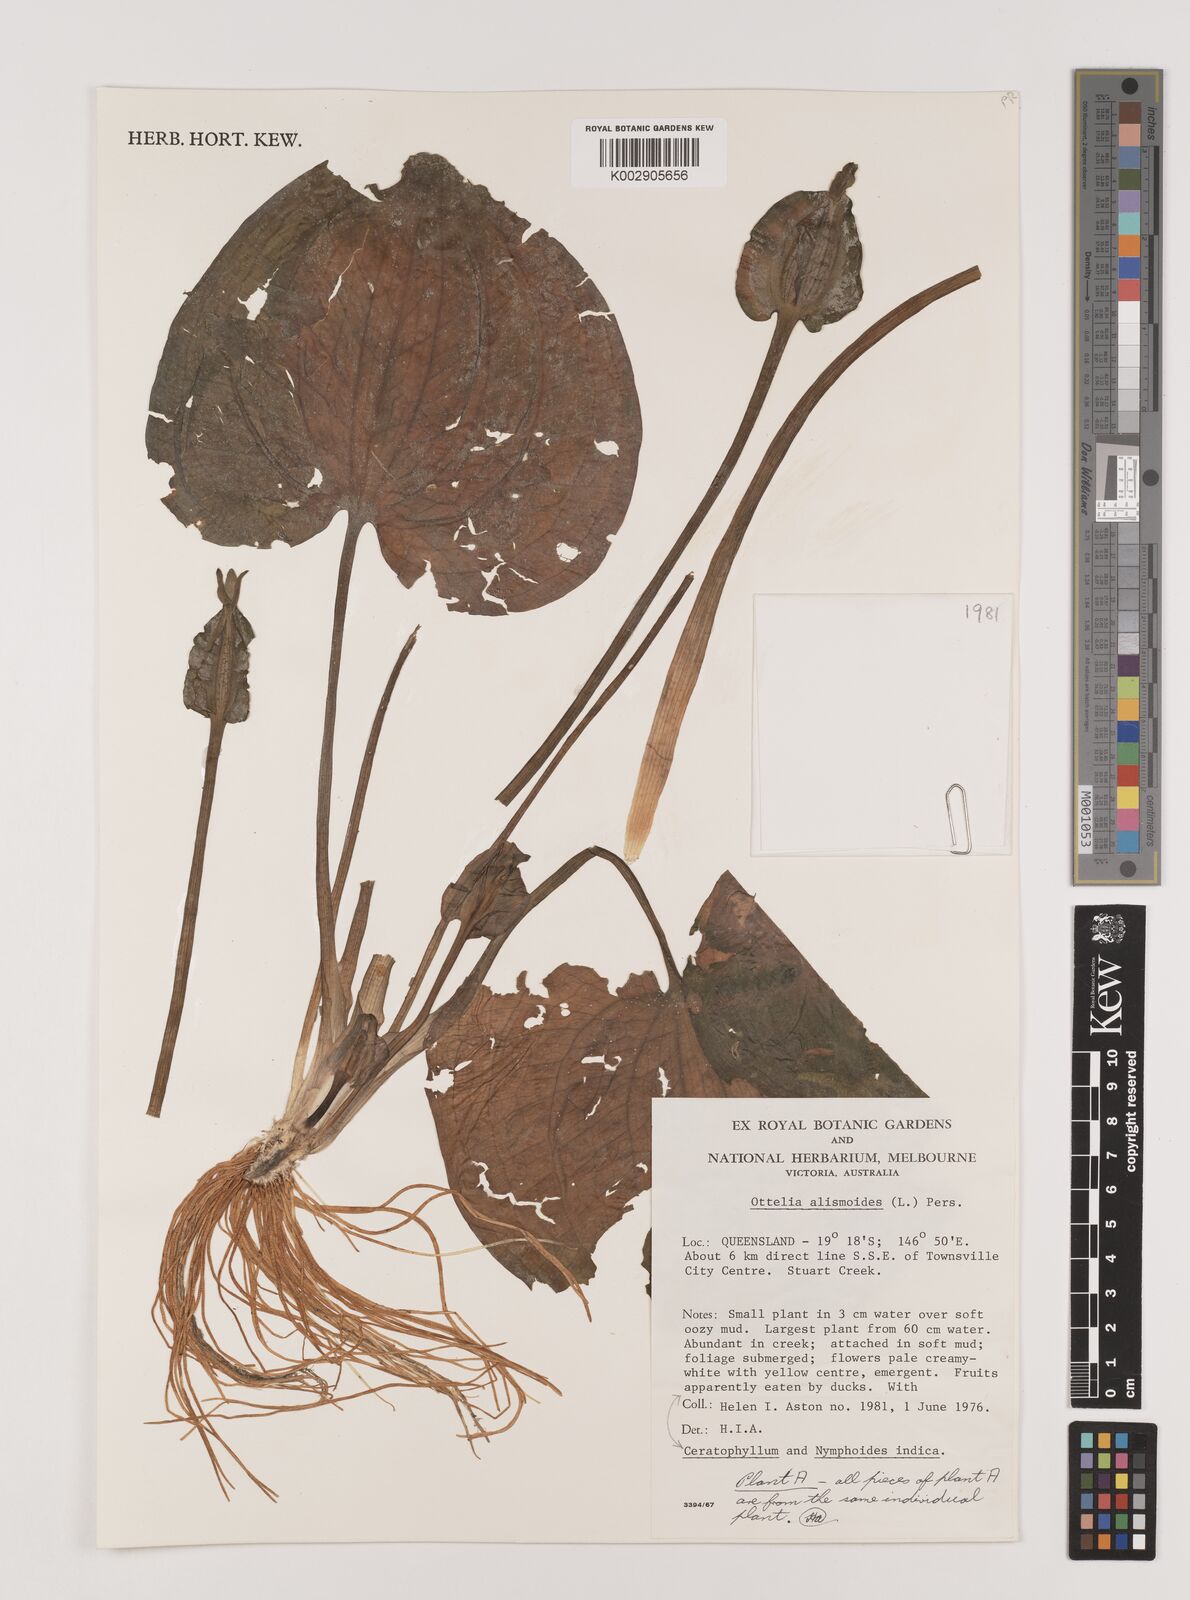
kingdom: Plantae
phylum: Tracheophyta
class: Liliopsida
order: Alismatales
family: Hydrocharitaceae
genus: Ottelia
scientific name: Ottelia alismoides
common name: Duck-lettuce
